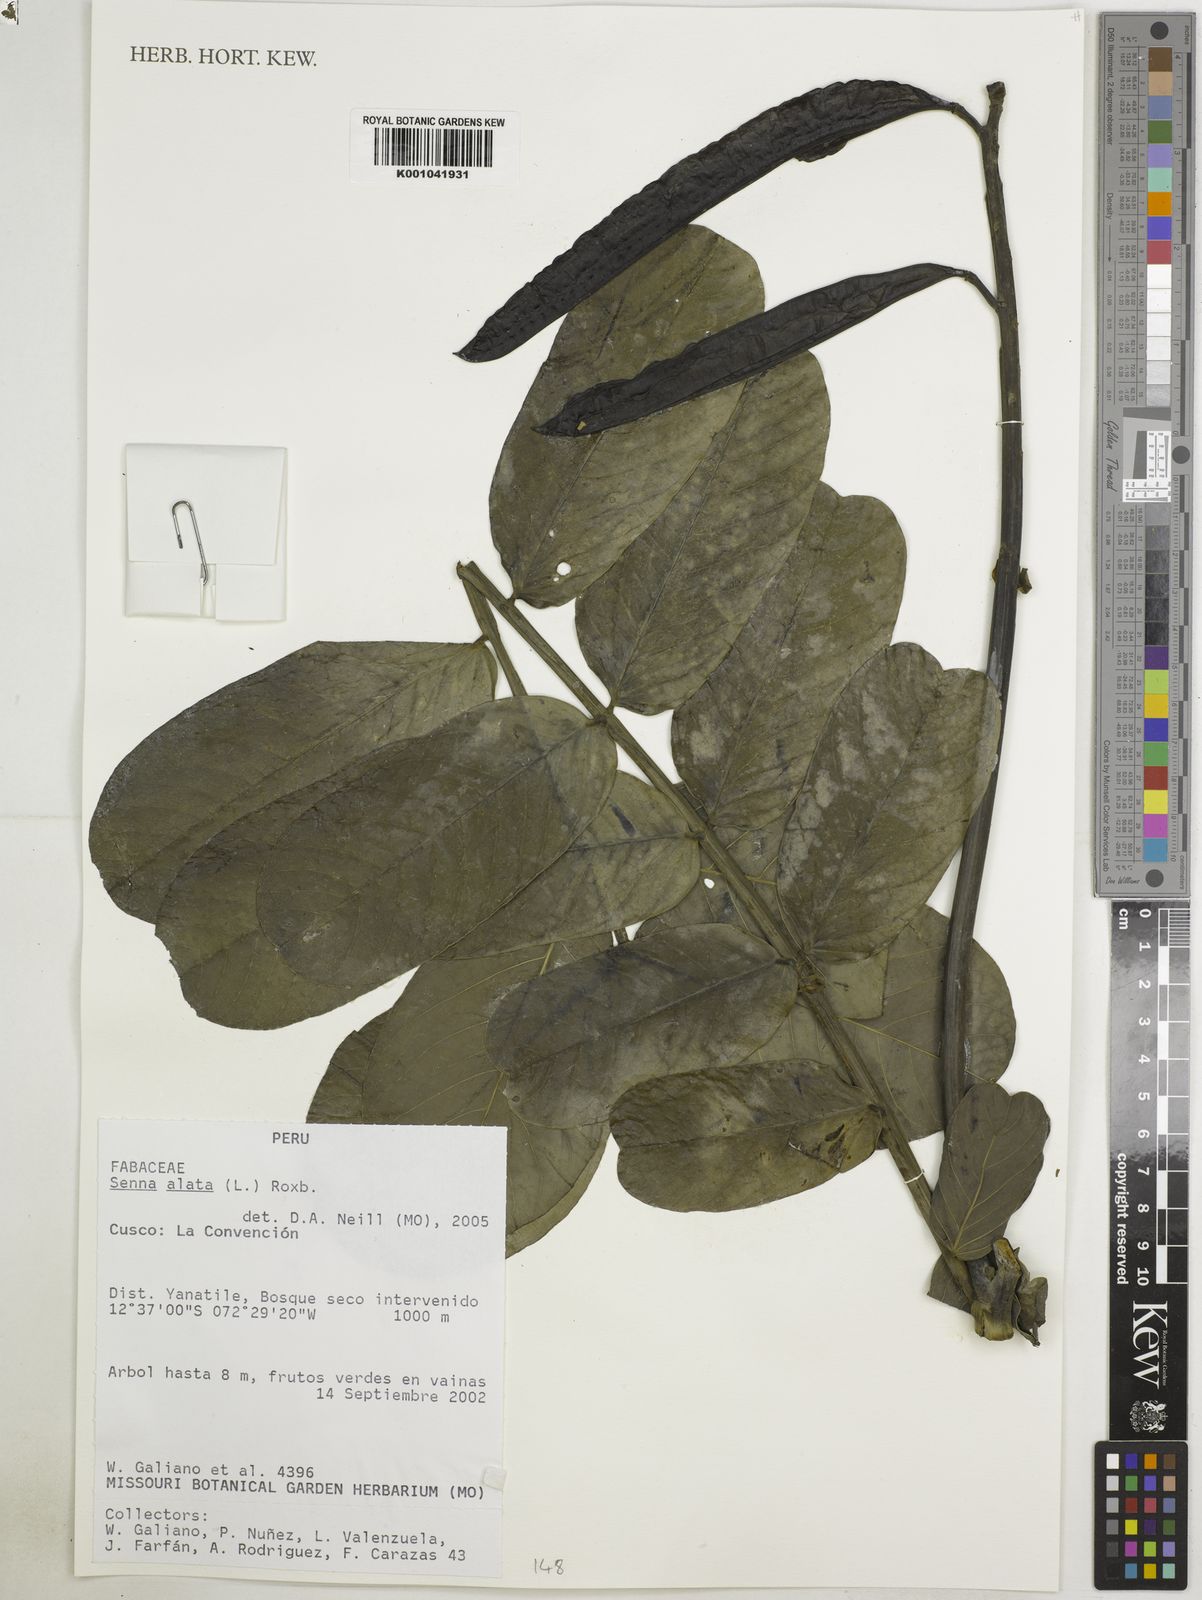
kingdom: Plantae
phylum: Tracheophyta
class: Magnoliopsida
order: Fabales
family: Fabaceae
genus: Senna
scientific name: Senna alata
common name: Emperor's candlesticks
